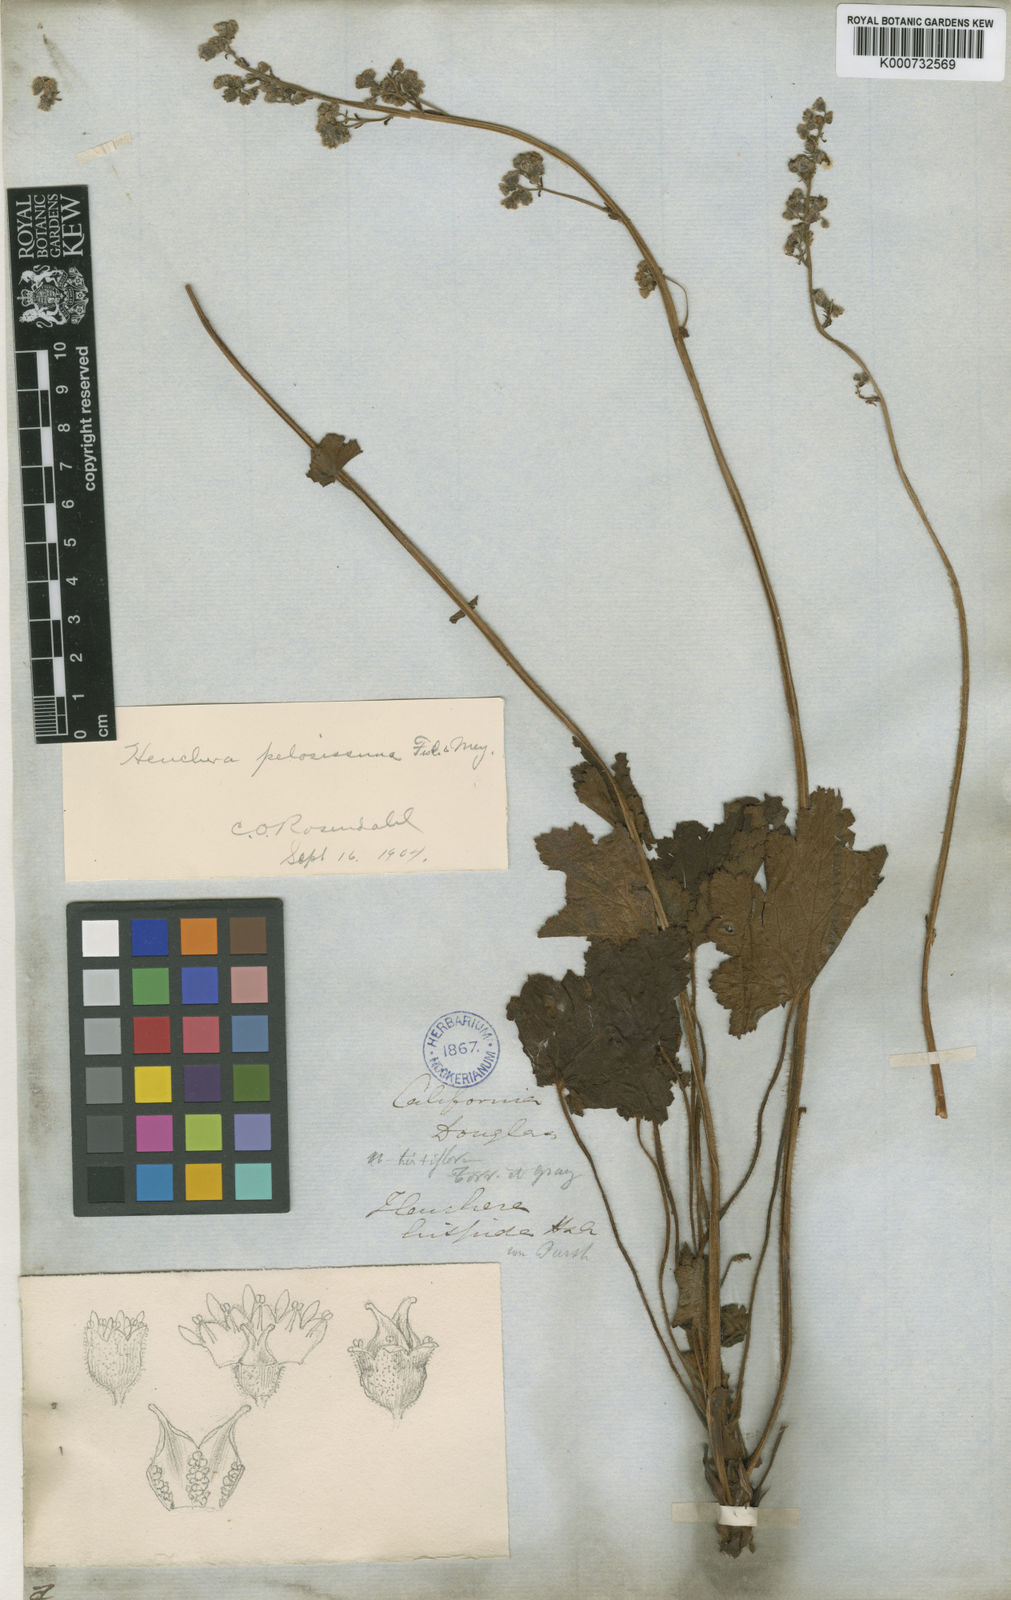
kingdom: Plantae
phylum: Tracheophyta
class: Magnoliopsida
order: Saxifragales
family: Saxifragaceae
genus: Heuchera
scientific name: Heuchera pilosissima
